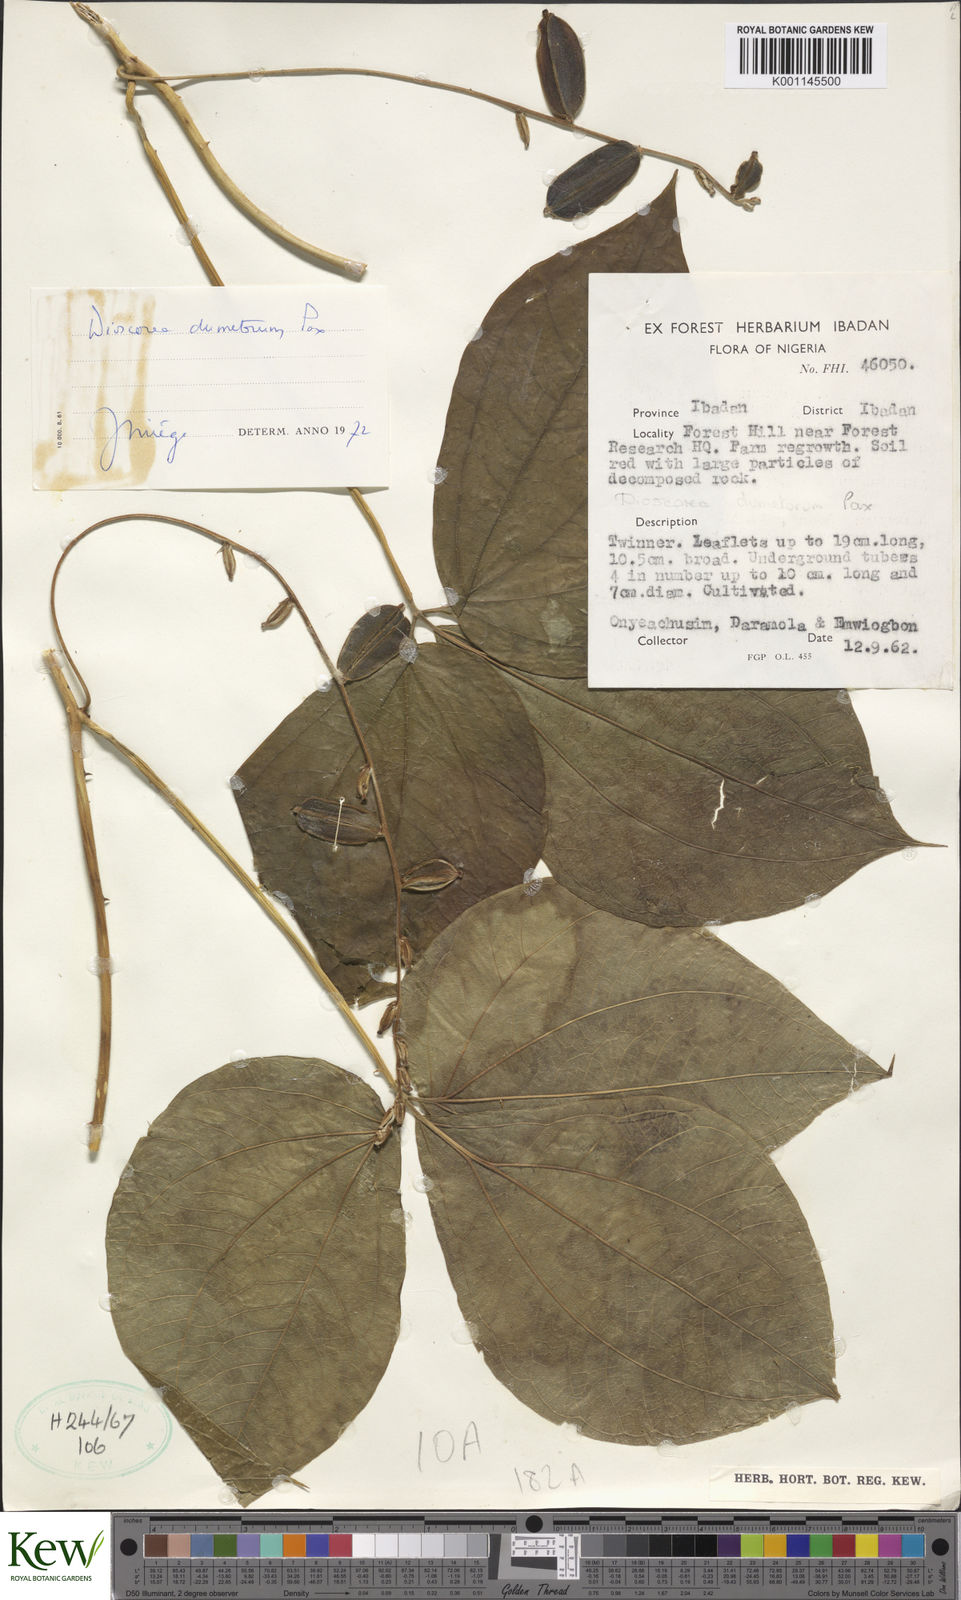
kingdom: Plantae
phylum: Tracheophyta
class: Liliopsida
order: Dioscoreales
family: Dioscoreaceae
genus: Dioscorea
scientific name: Dioscorea dumetorum
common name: African bitter yam
